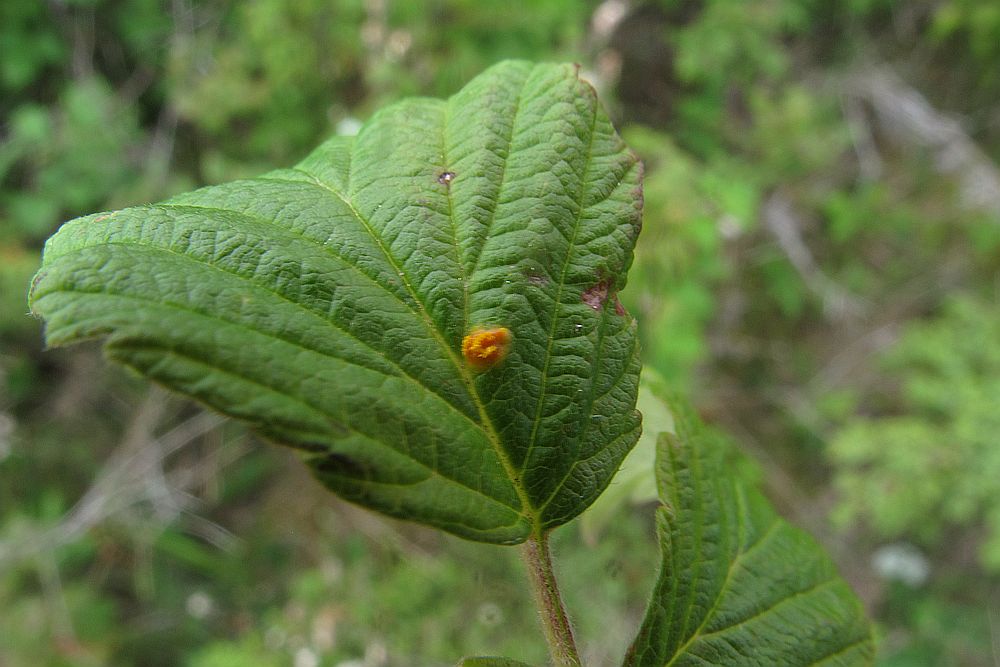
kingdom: Fungi
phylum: Basidiomycota
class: Pucciniomycetes
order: Pucciniales
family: Phragmidiaceae
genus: Phragmidium
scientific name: Phragmidium rubi-idaei
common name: hindbær-flercellerust
